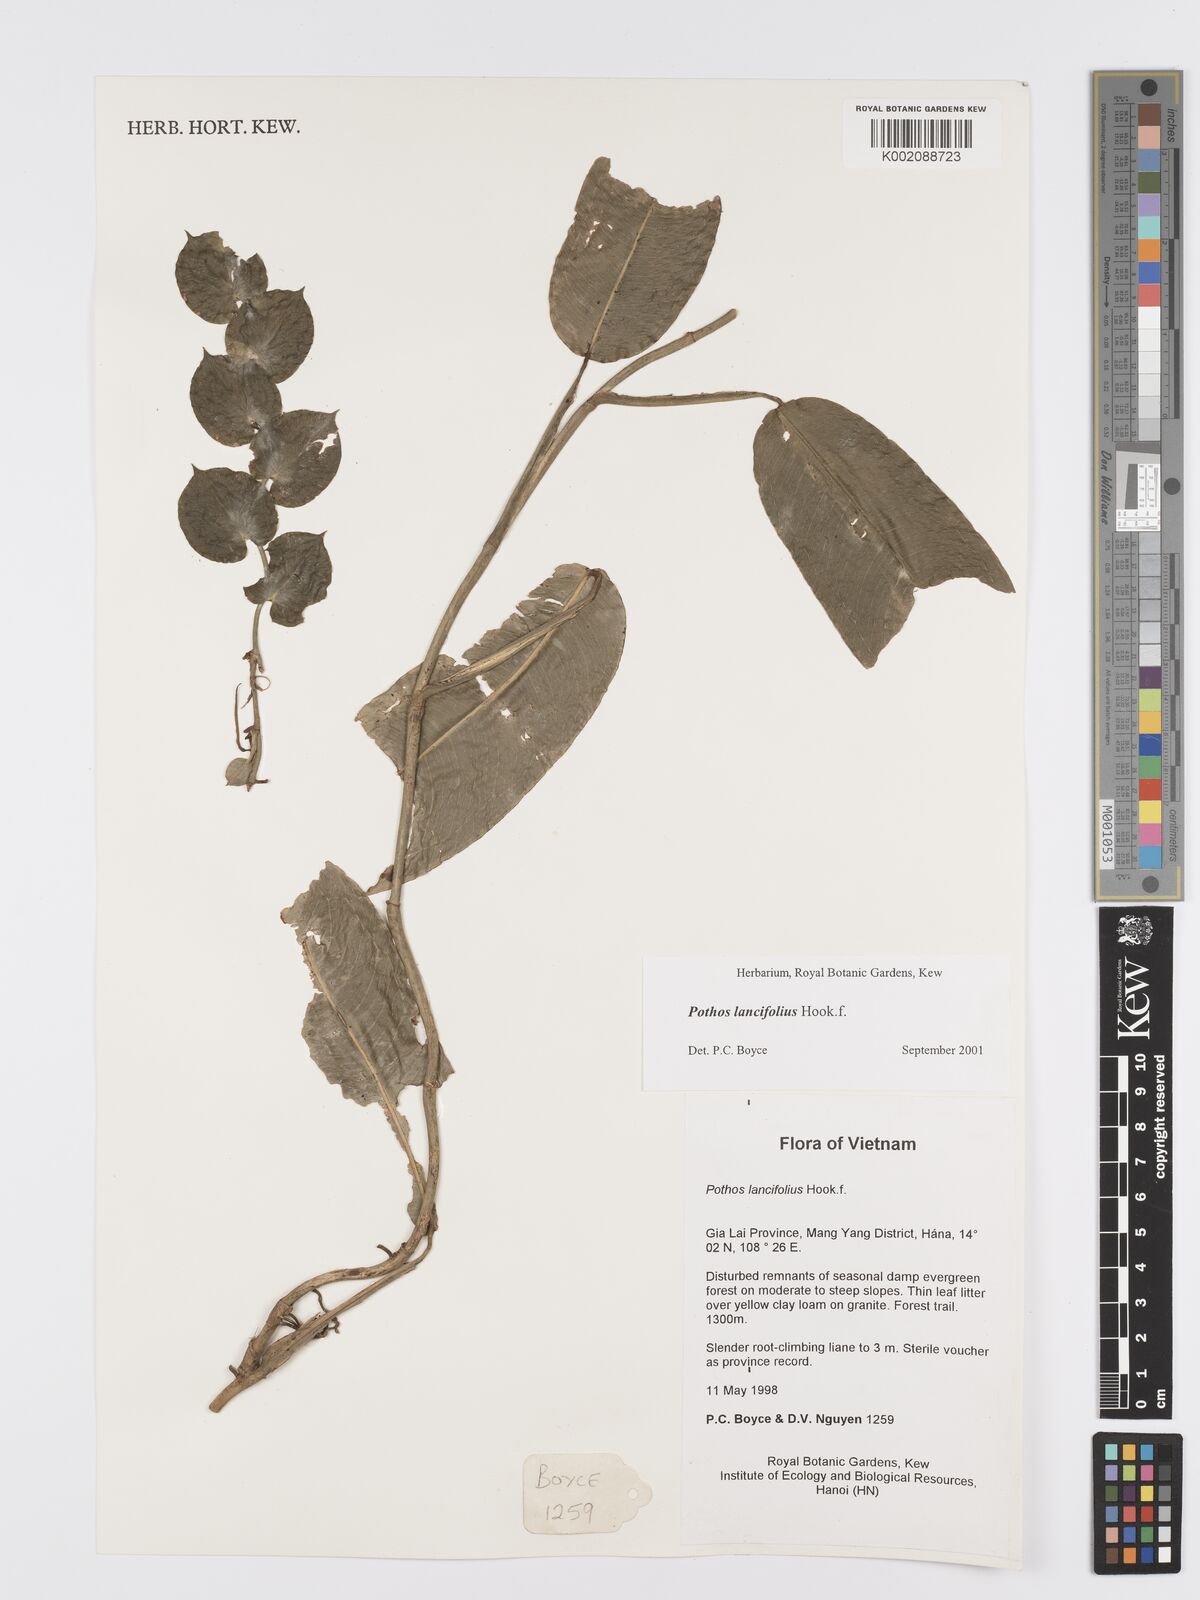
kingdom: Plantae
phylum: Tracheophyta
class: Liliopsida
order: Alismatales
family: Araceae
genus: Pothos
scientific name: Pothos lancifolius
